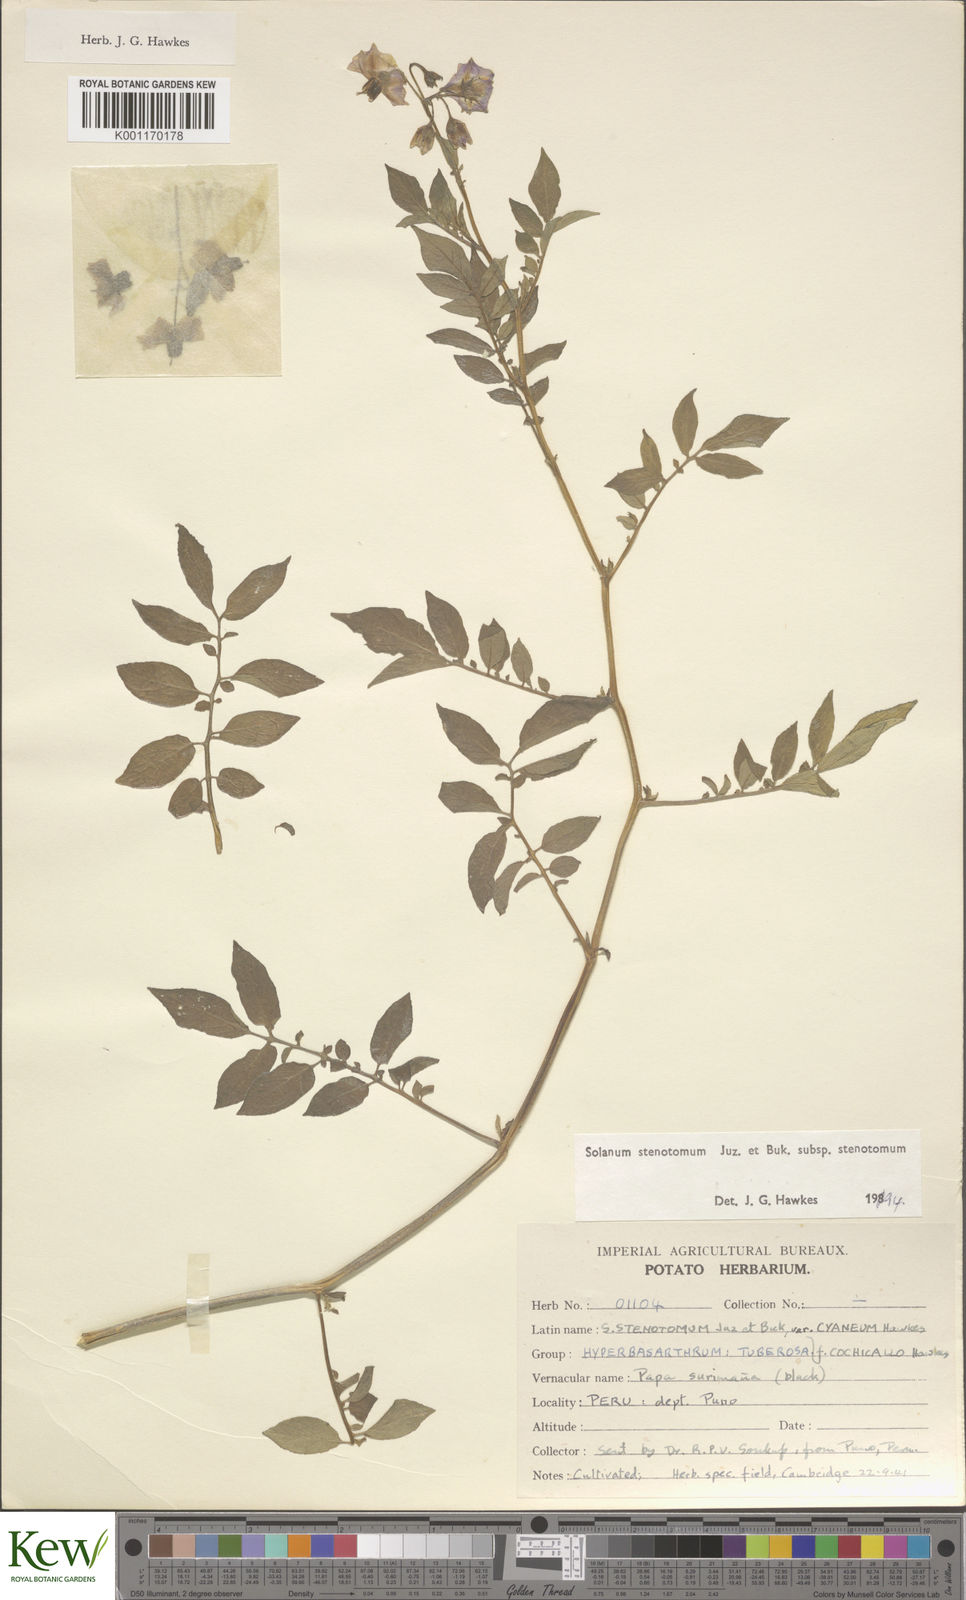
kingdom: Plantae
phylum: Tracheophyta
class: Magnoliopsida
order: Solanales
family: Solanaceae
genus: Solanum
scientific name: Solanum tuberosum
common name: Potato
